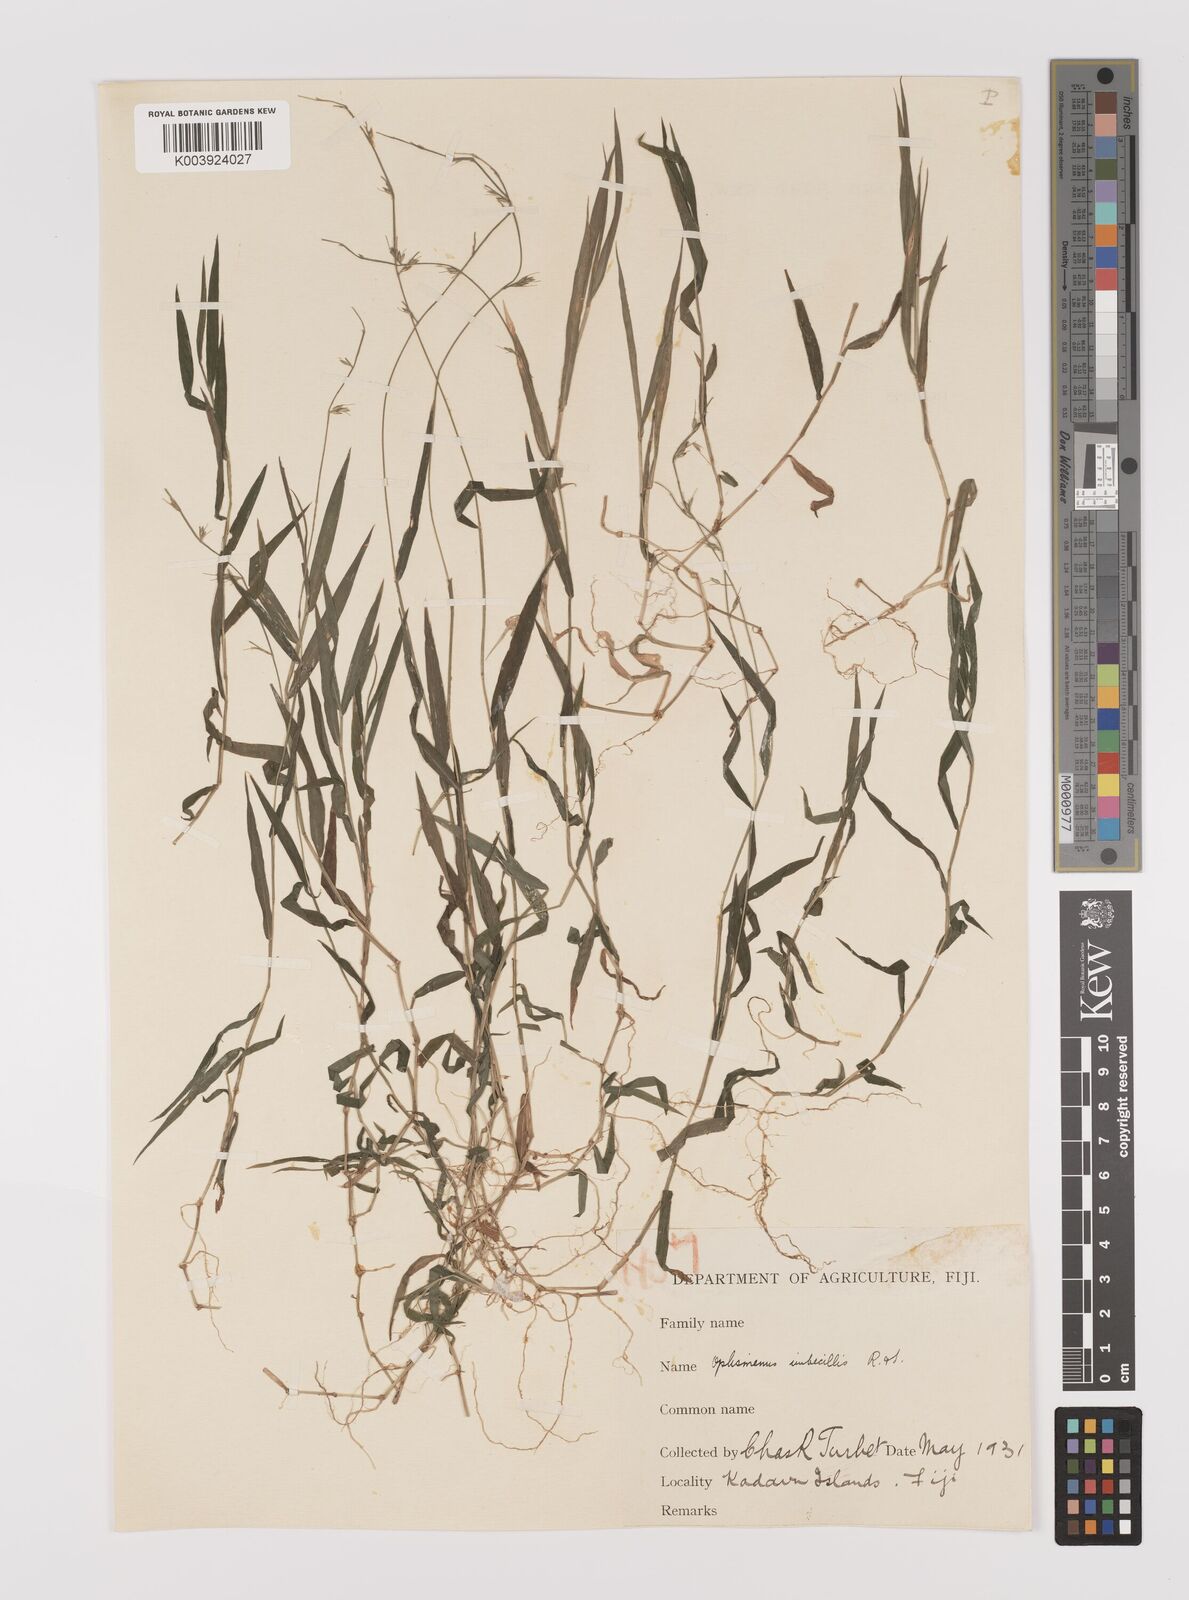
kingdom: Plantae
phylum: Tracheophyta
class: Liliopsida
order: Poales
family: Poaceae
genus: Oplismenus
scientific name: Oplismenus hirtellus
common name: Basketgrass
